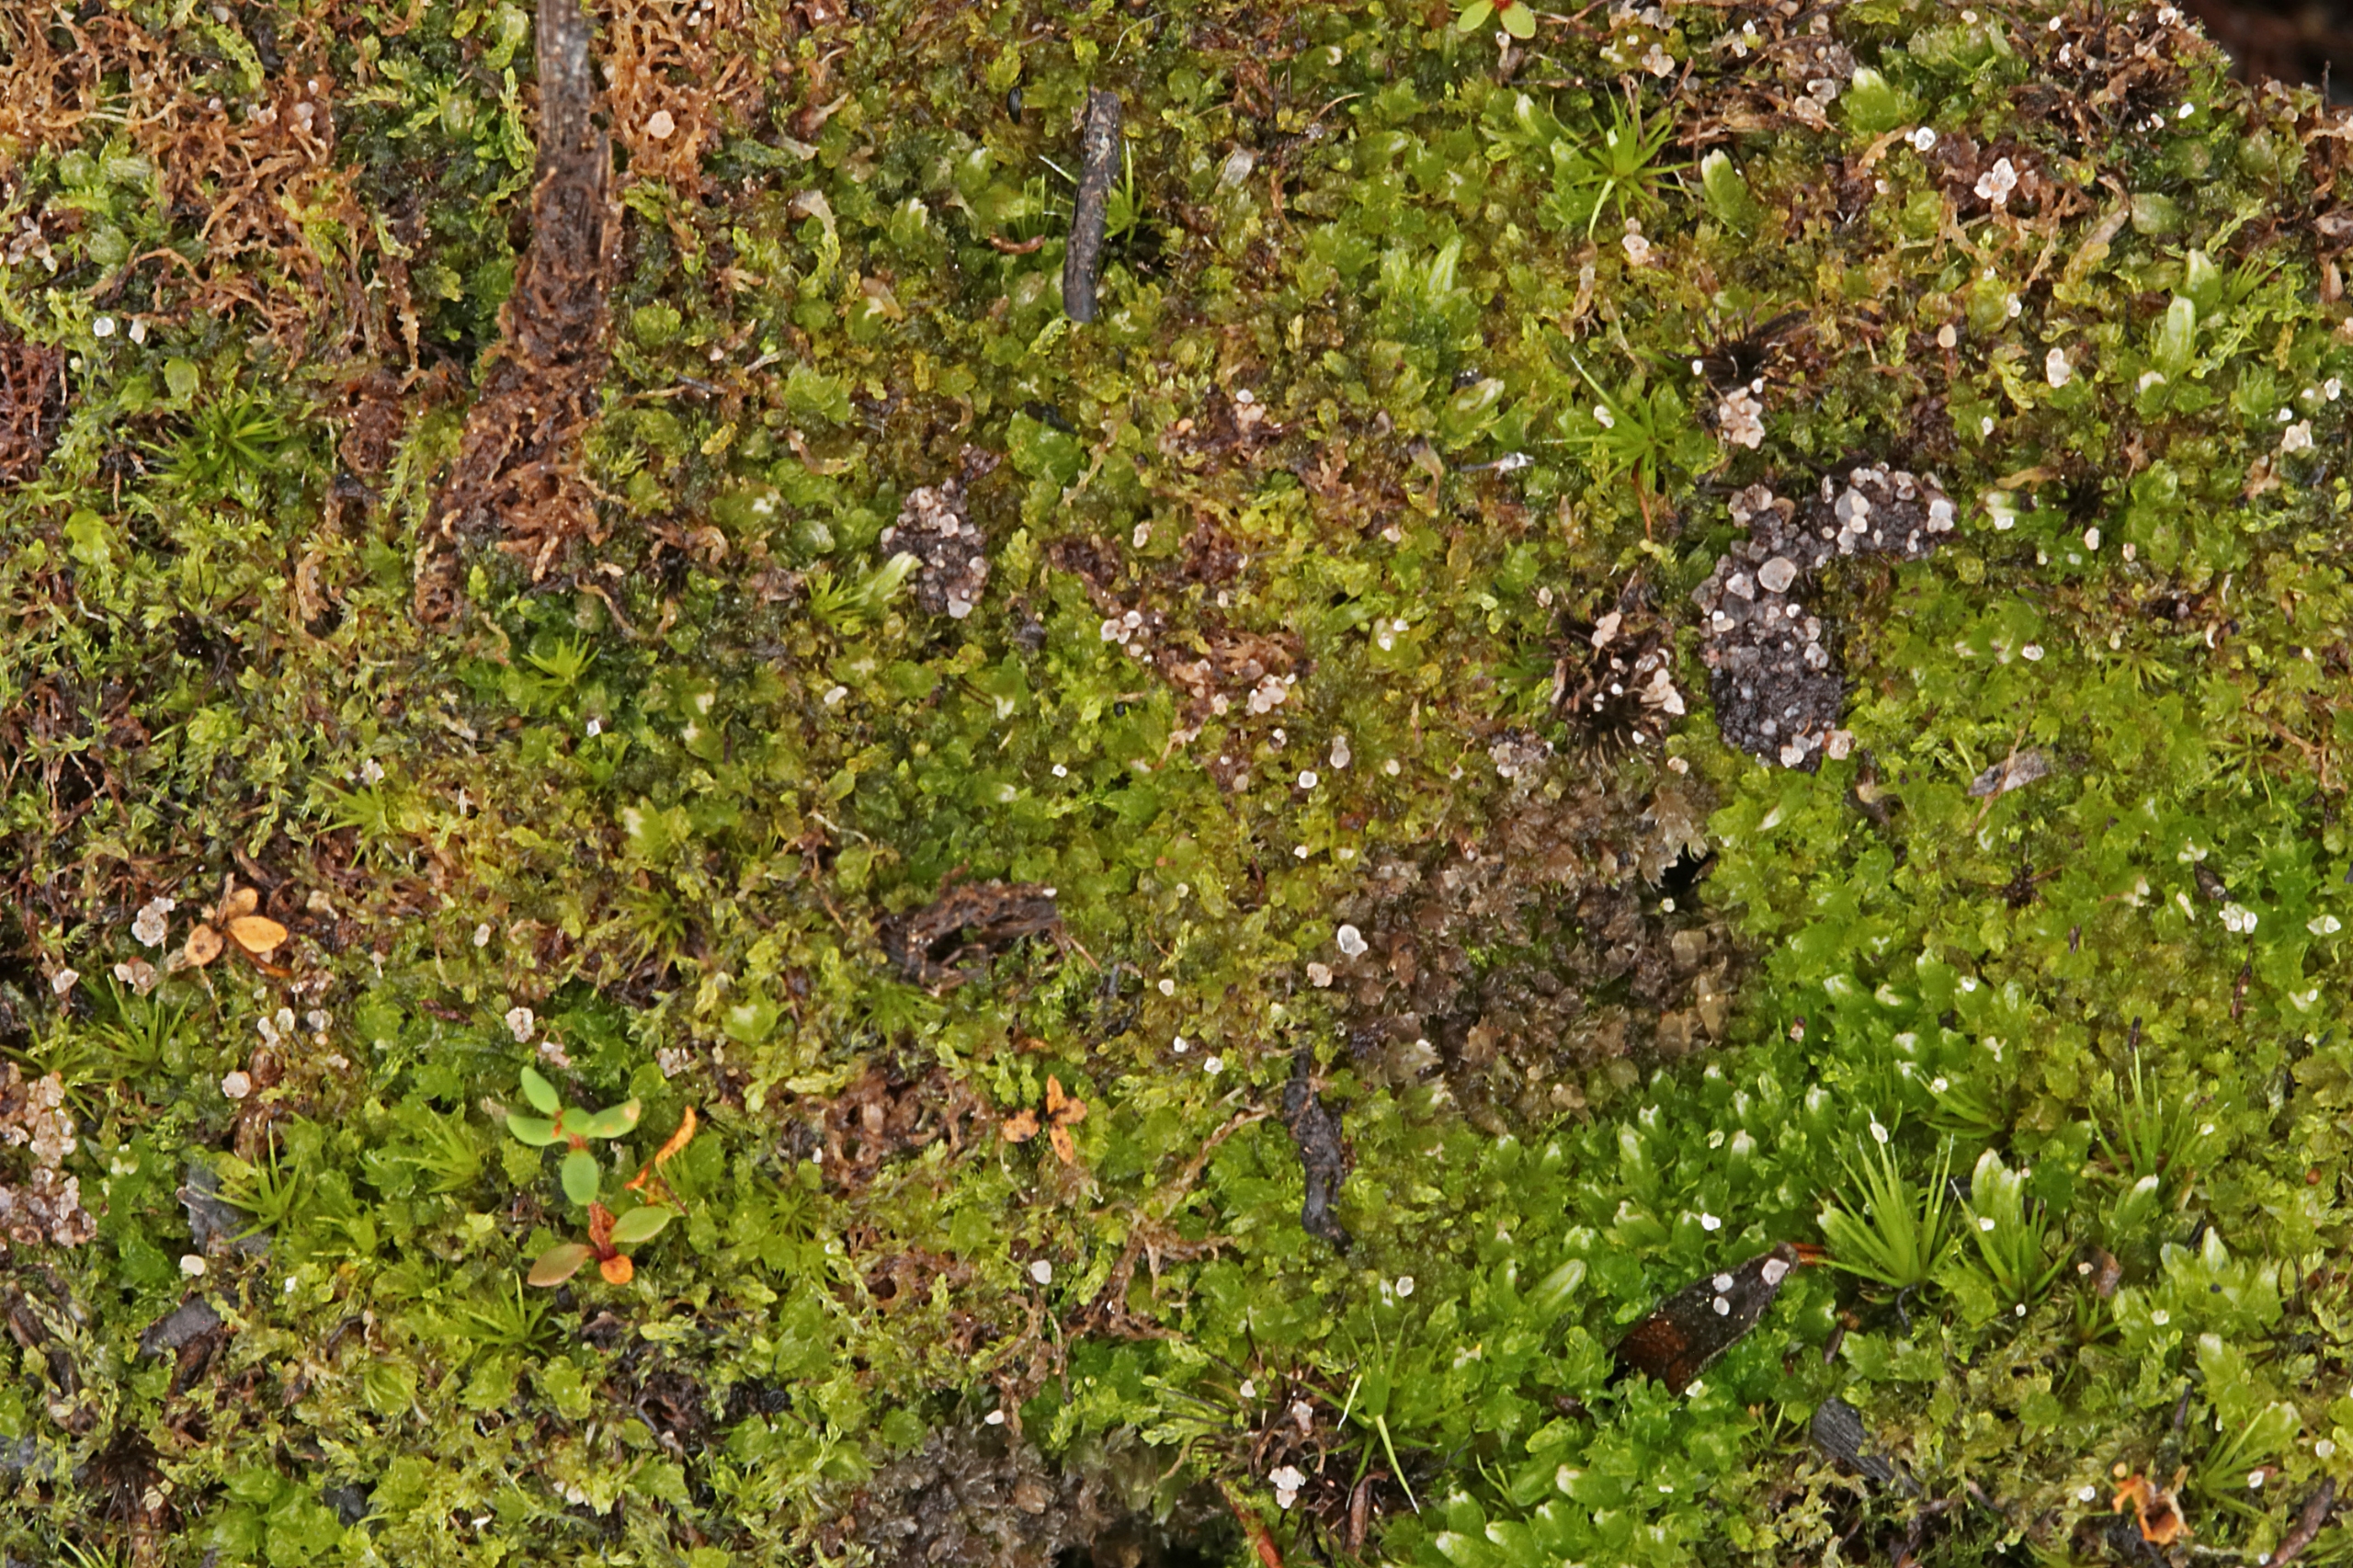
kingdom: Plantae
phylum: Marchantiophyta
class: Jungermanniopsida
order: Jungermanniales
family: Cephaloziaceae
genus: Cephalozia
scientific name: Cephalozia bicuspidata
